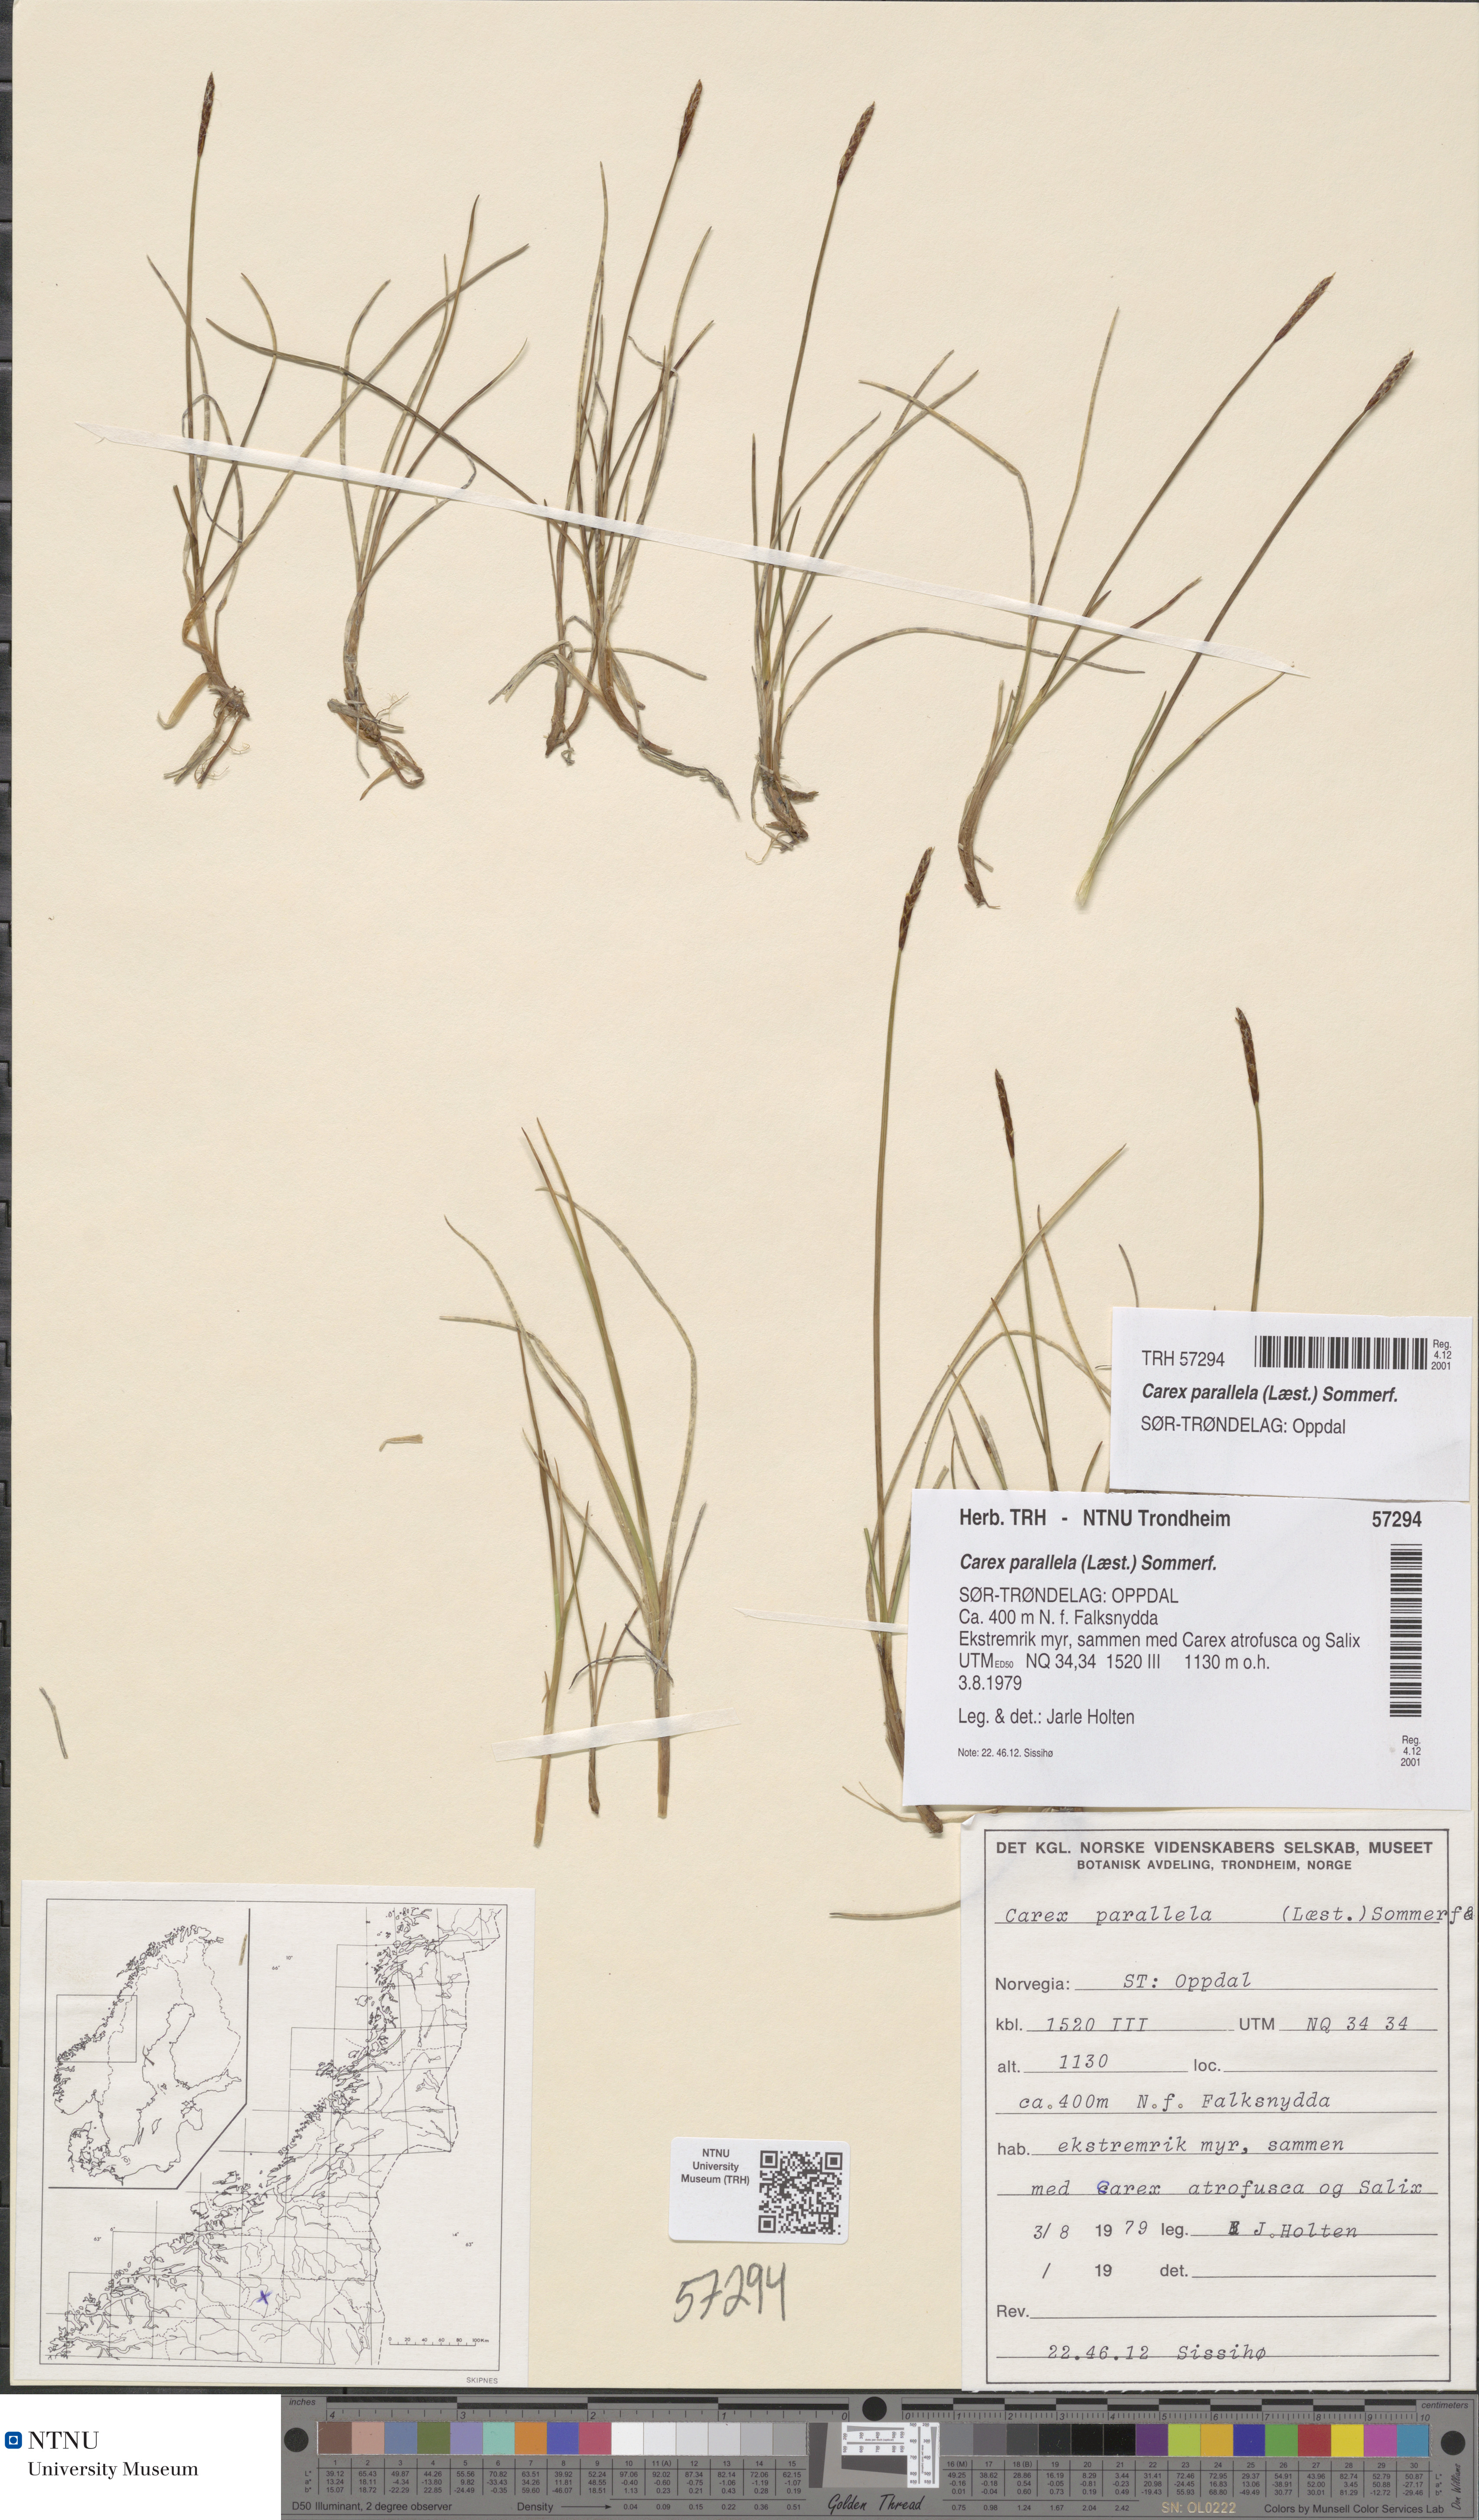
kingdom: Plantae
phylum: Tracheophyta
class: Liliopsida
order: Poales
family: Cyperaceae
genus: Carex
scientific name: Carex parallela
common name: Parallel sedge
